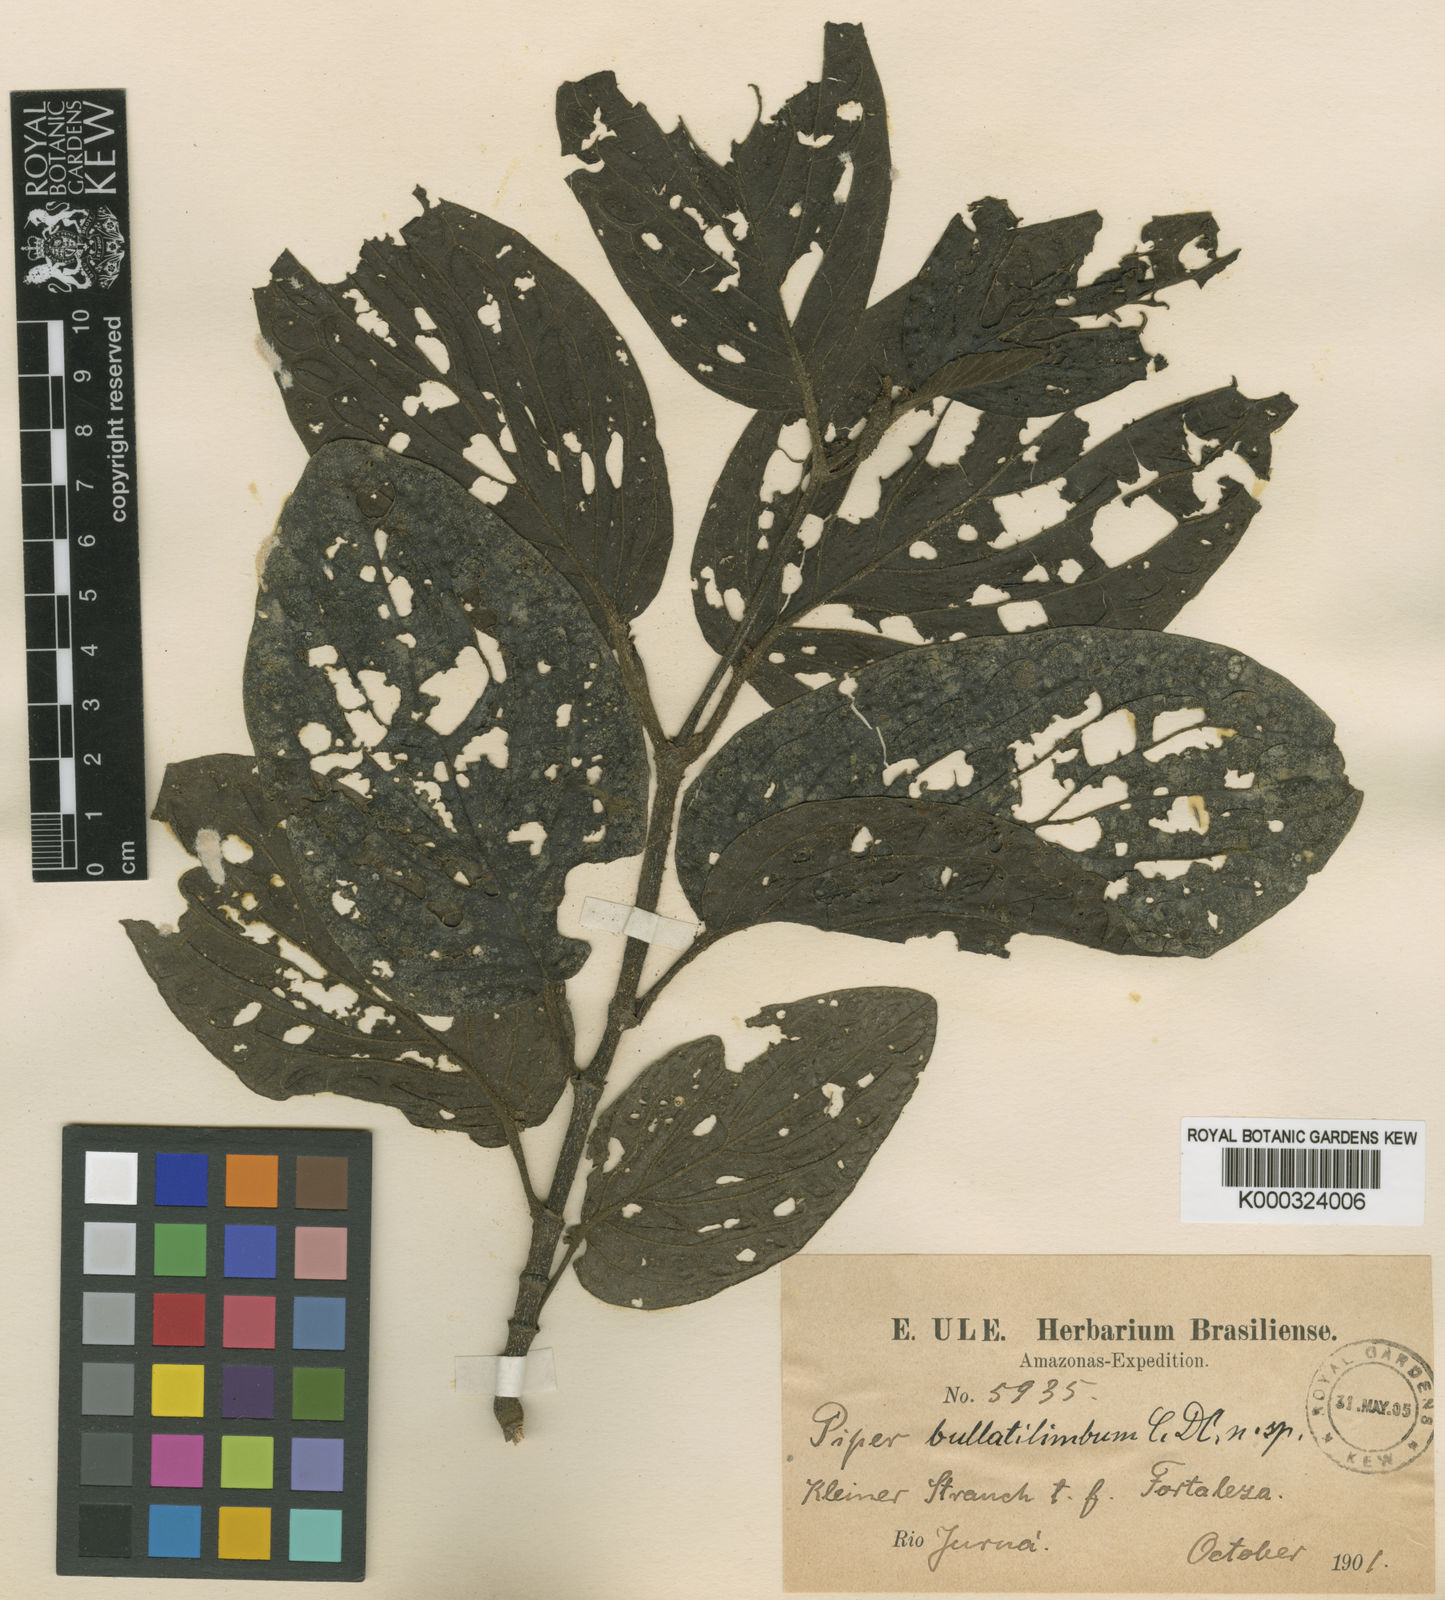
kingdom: Plantae
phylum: Tracheophyta
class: Magnoliopsida
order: Piperales
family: Piperaceae
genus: Piper
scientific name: Piper
